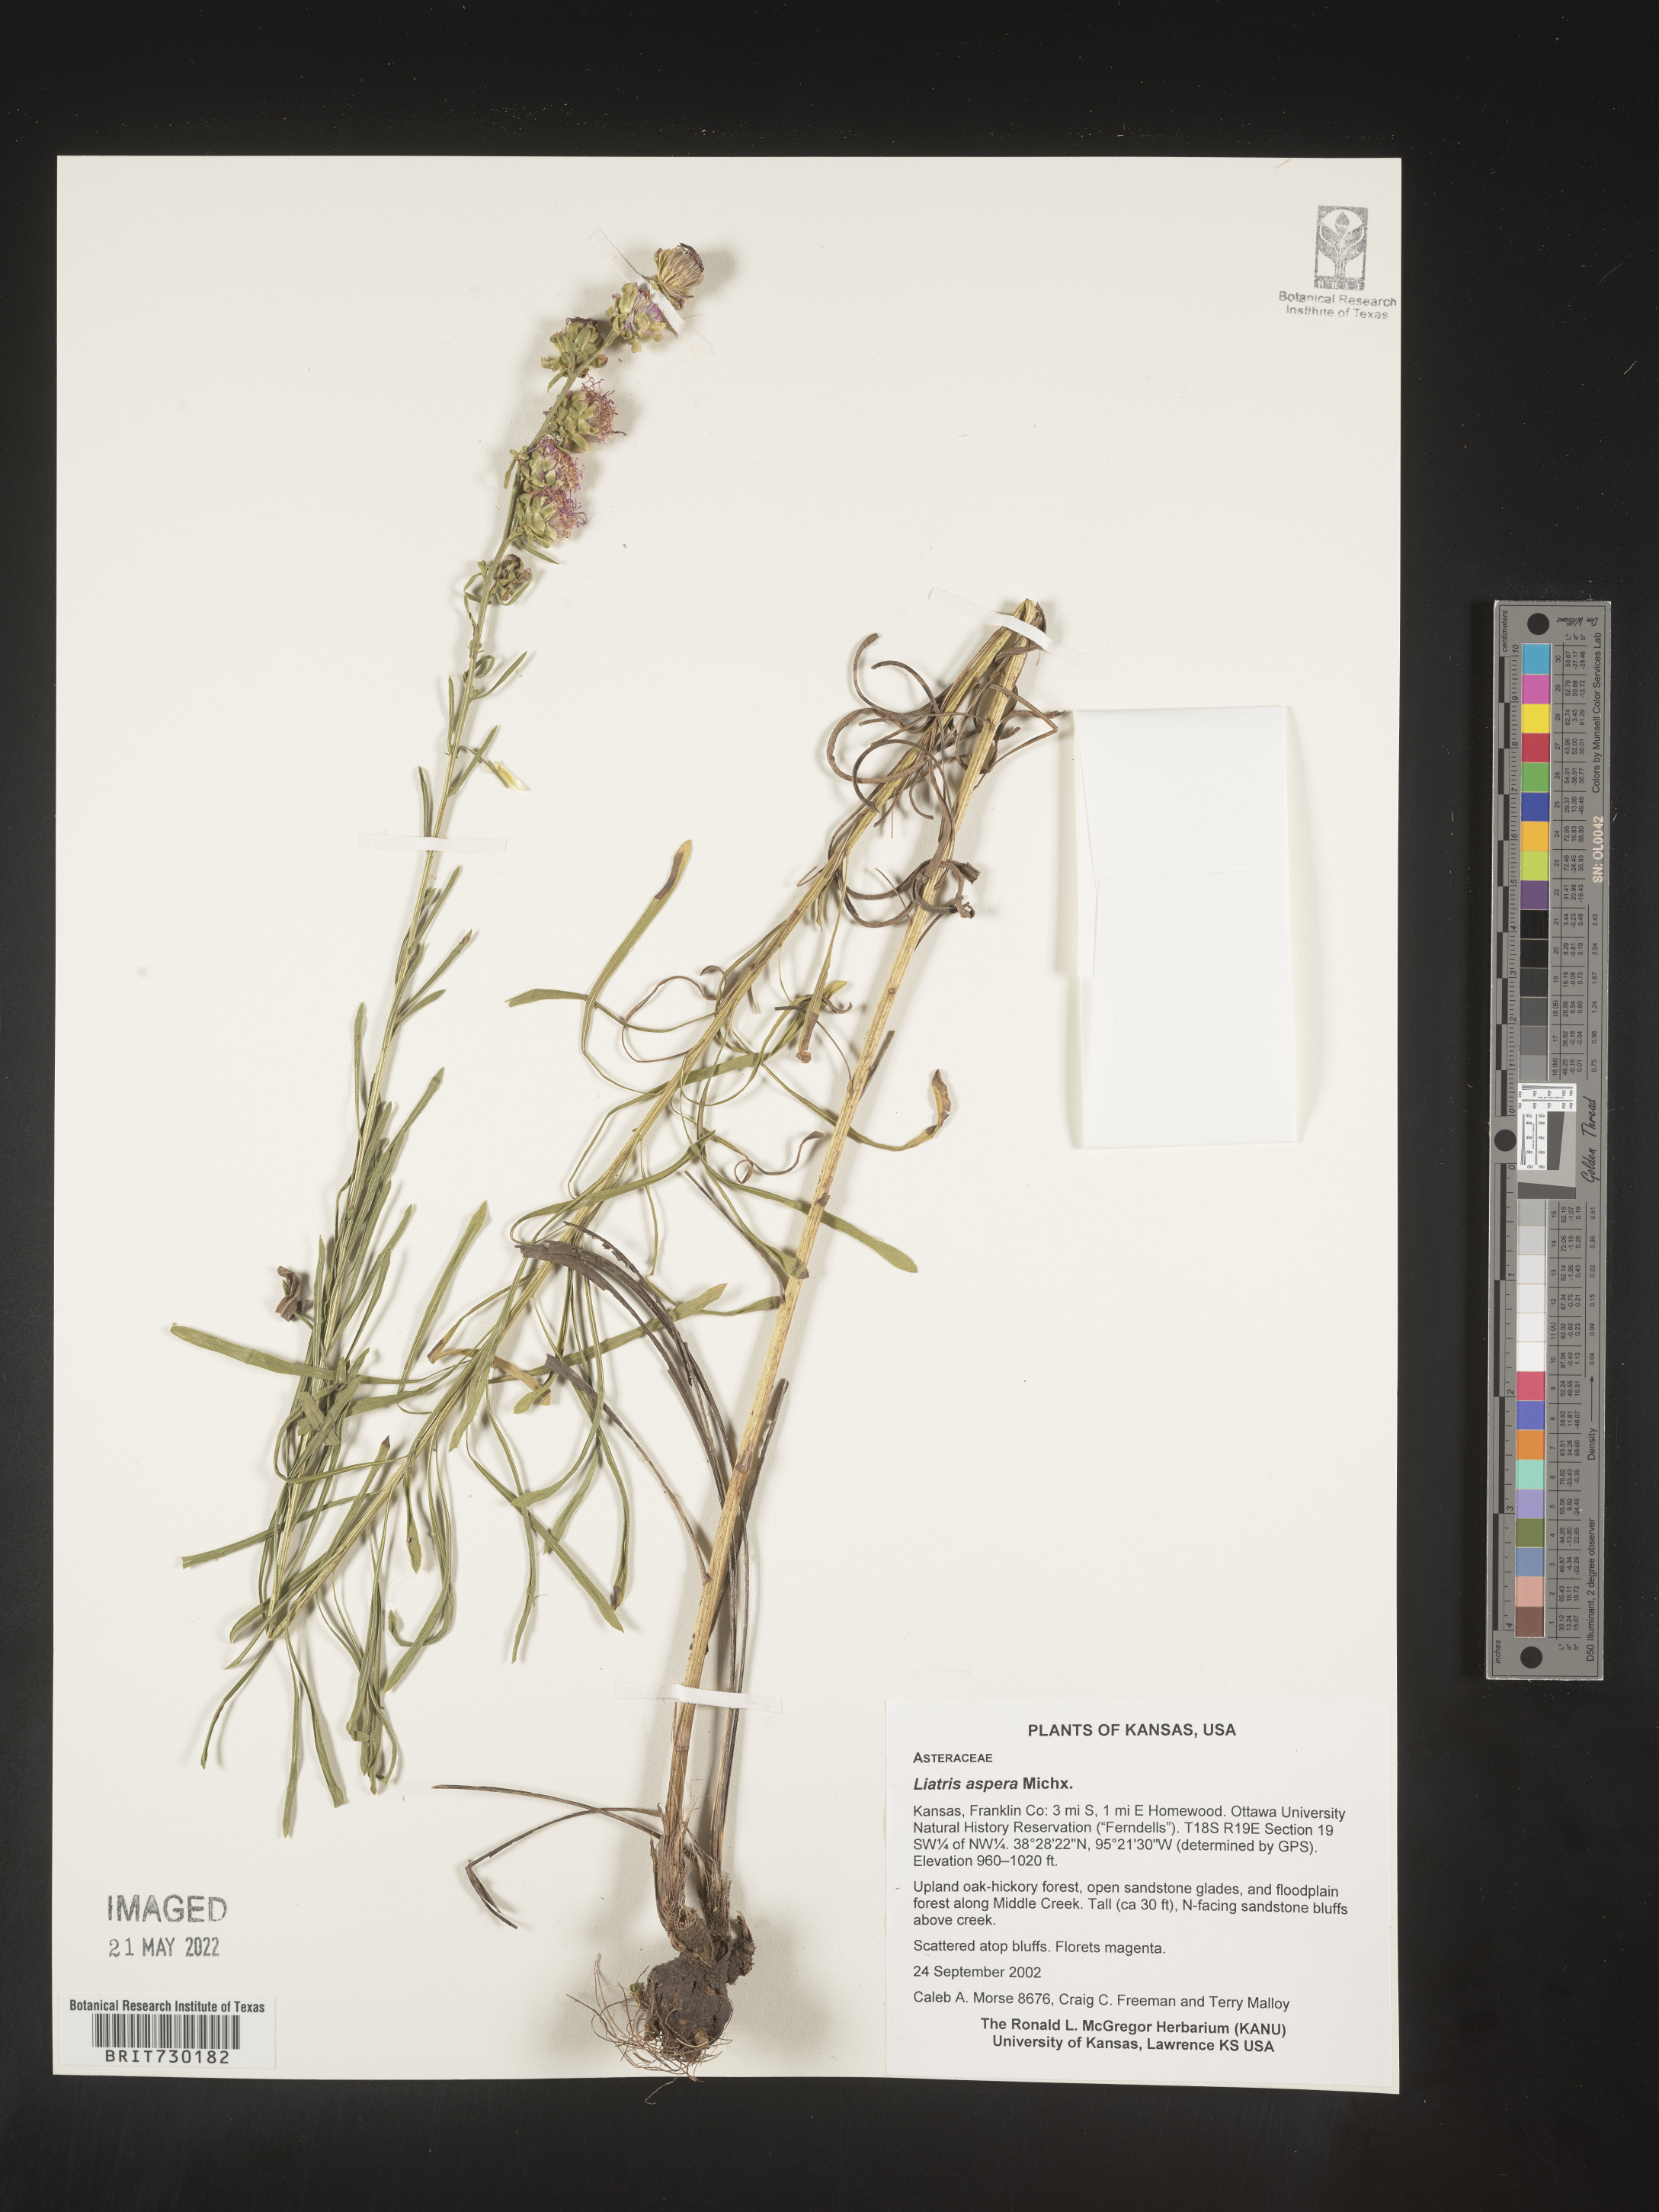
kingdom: Plantae
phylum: Tracheophyta
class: Magnoliopsida
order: Asterales
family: Asteraceae
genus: Liatris
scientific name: Liatris aspera
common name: Lacerate blazing-star
